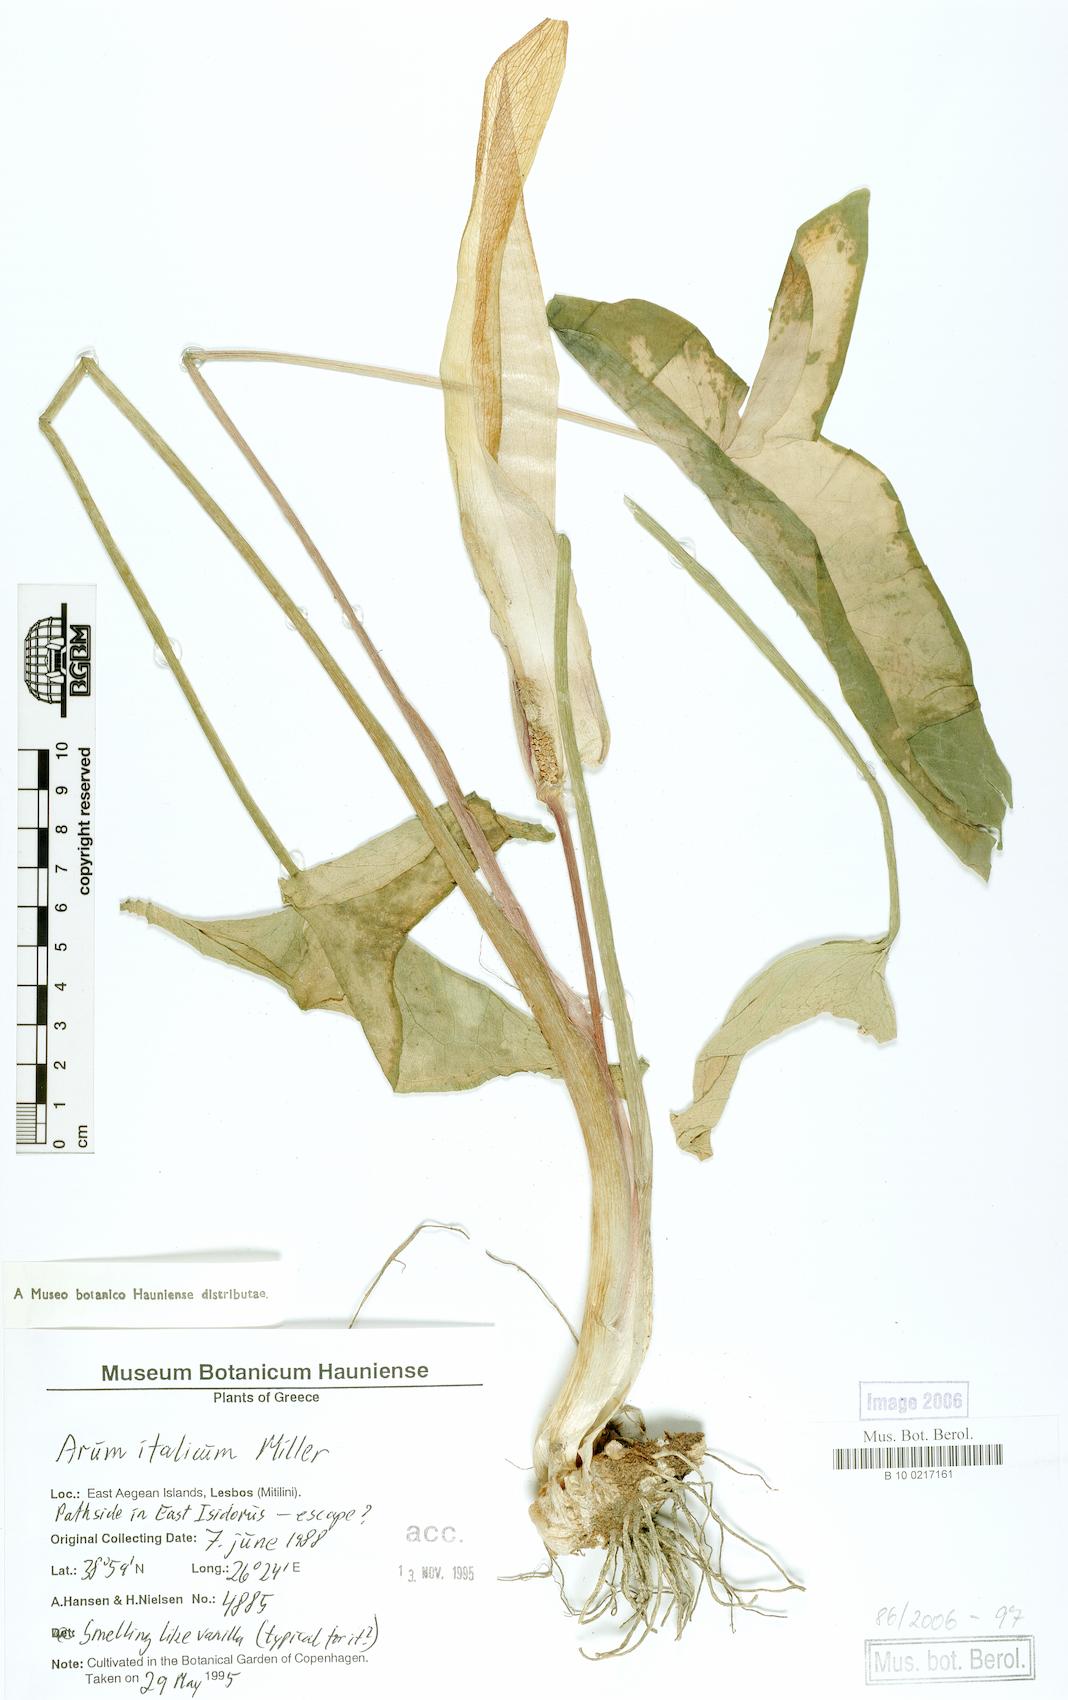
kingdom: Plantae
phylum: Tracheophyta
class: Liliopsida
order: Alismatales
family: Araceae
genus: Arum
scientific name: Arum italicum
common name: Italian lords-and-ladies
